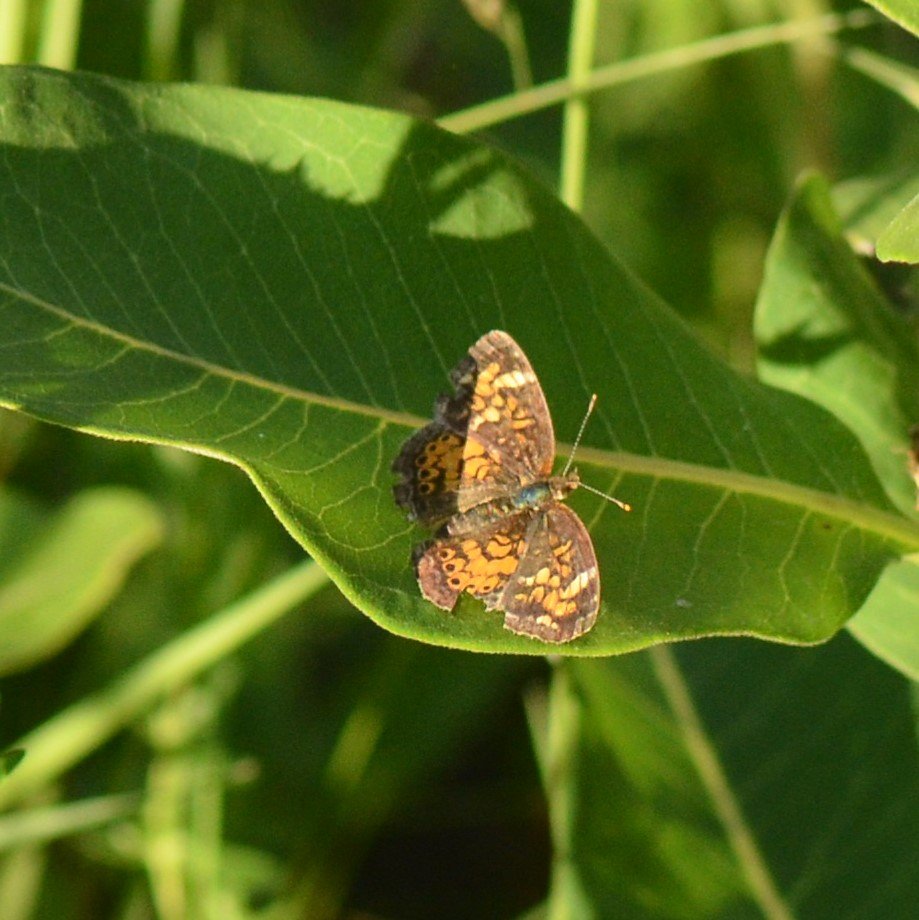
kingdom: Animalia
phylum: Arthropoda
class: Insecta
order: Lepidoptera
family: Nymphalidae
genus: Phyciodes
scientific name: Phyciodes tharos
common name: Northern Crescent
